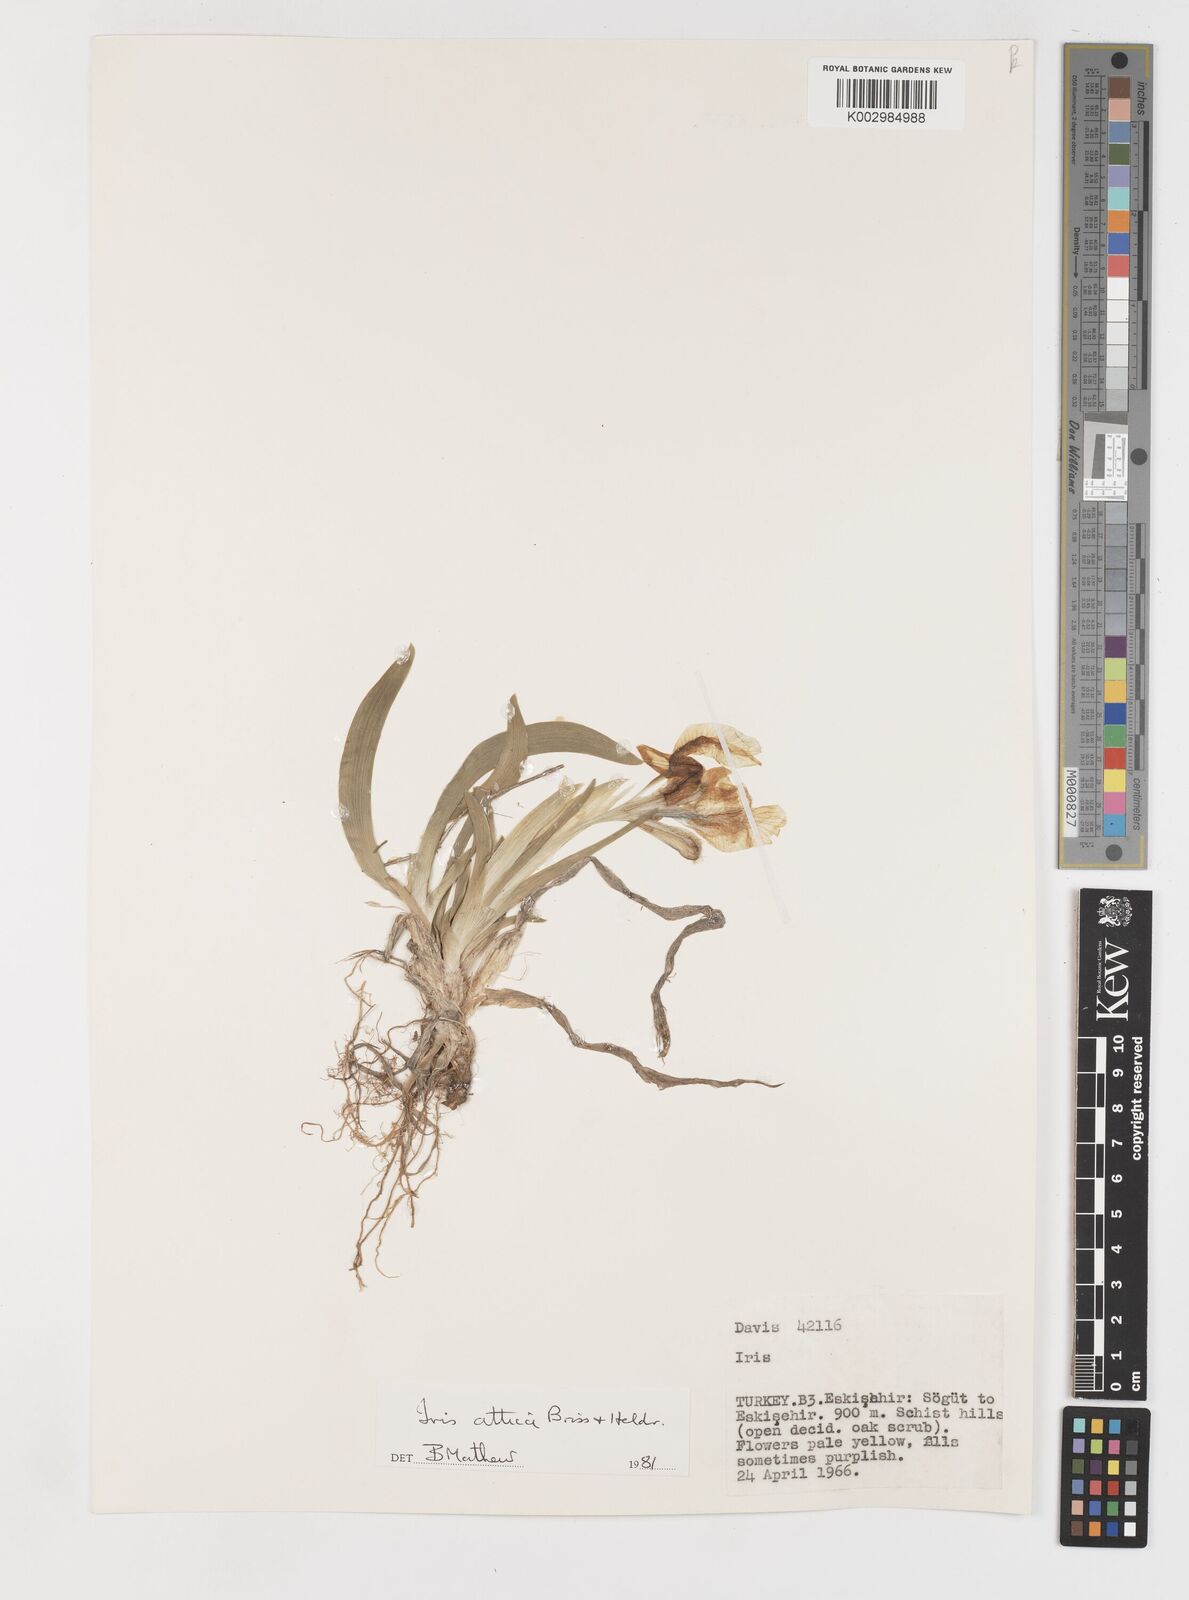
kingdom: Plantae
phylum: Tracheophyta
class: Liliopsida
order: Asparagales
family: Iridaceae
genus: Iris
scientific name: Iris pumila
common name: Dwarf iris
